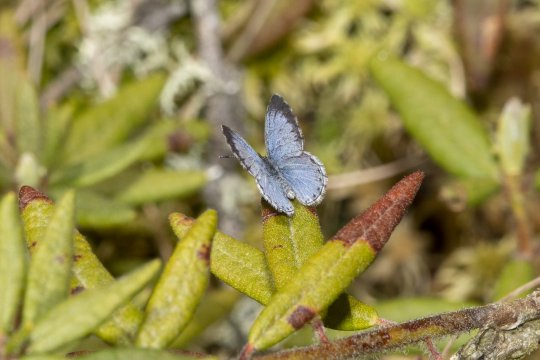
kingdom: Animalia
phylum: Arthropoda
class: Insecta
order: Lepidoptera
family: Lycaenidae
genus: Celastrina
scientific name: Celastrina lucia
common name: Northern Spring Azure
